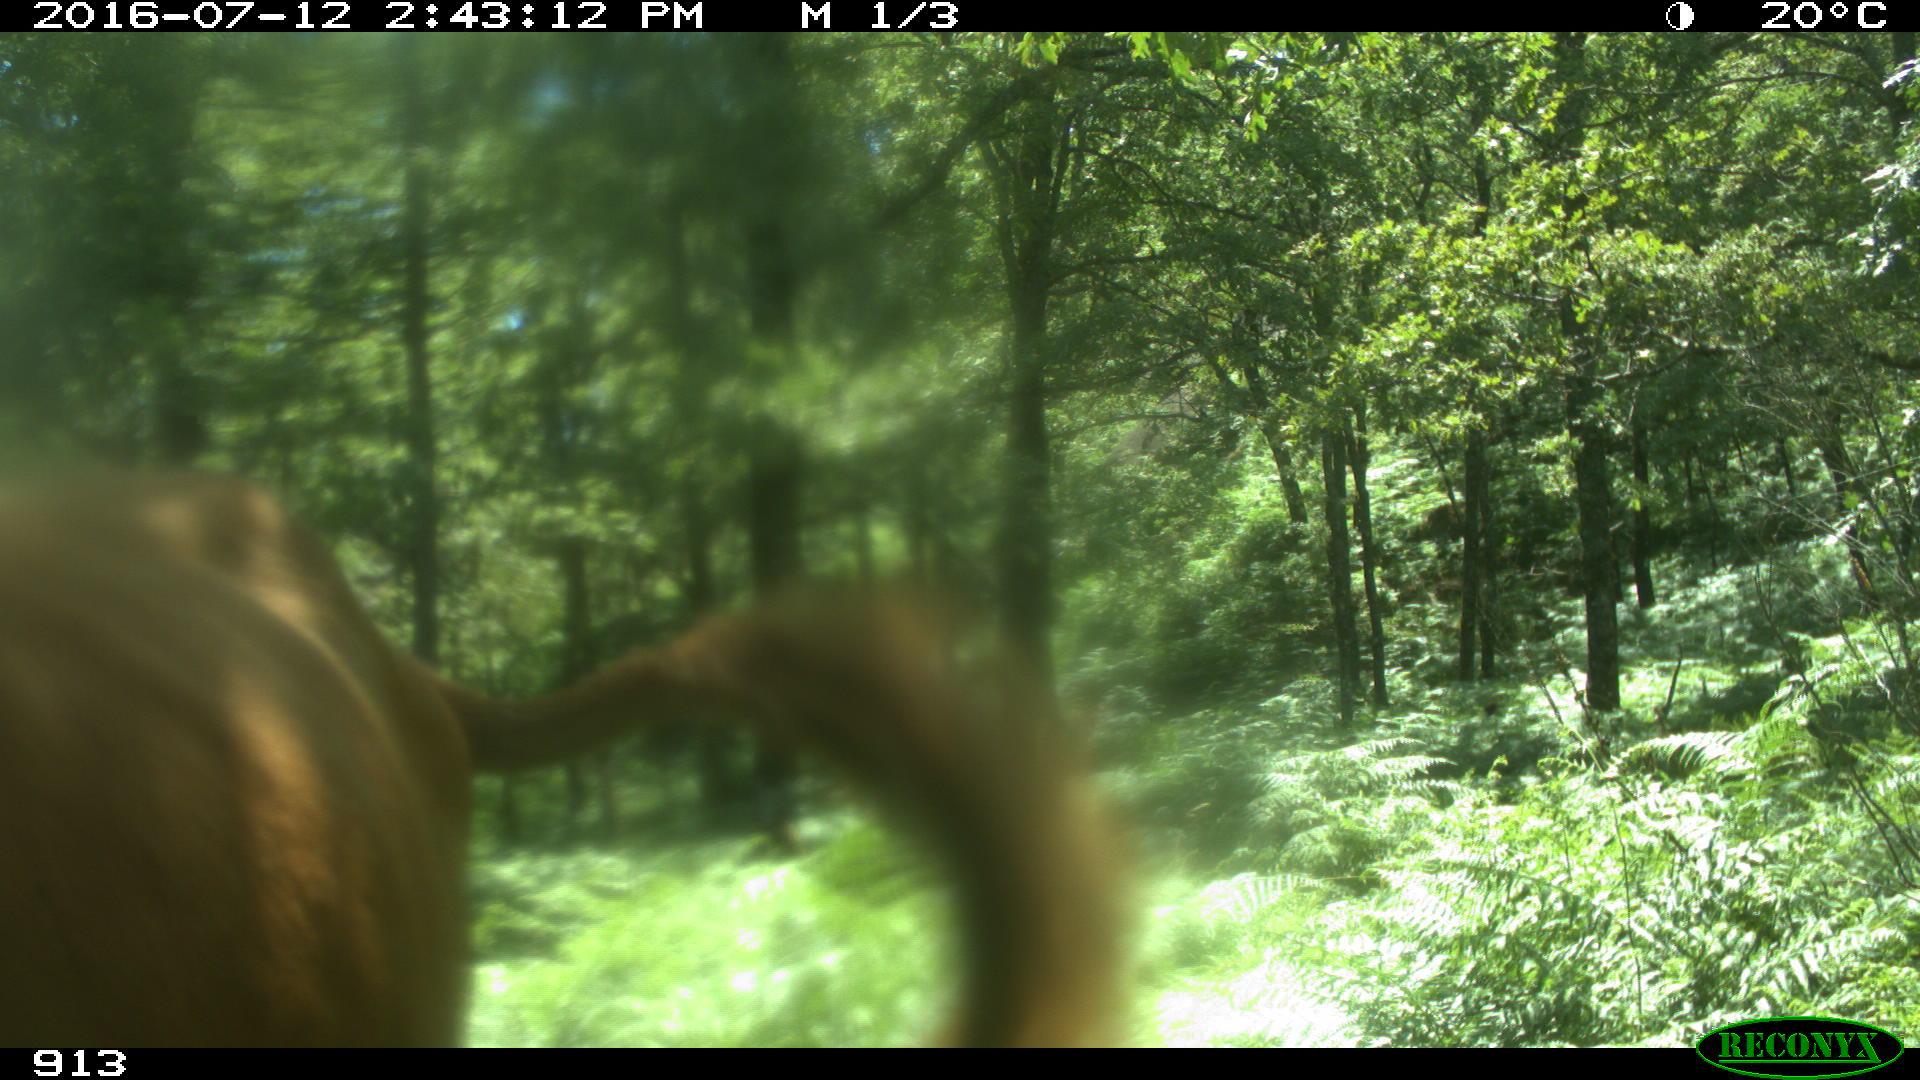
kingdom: Animalia
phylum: Chordata
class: Mammalia
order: Artiodactyla
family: Bovidae
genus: Bos
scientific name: Bos taurus
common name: Domesticated cattle
